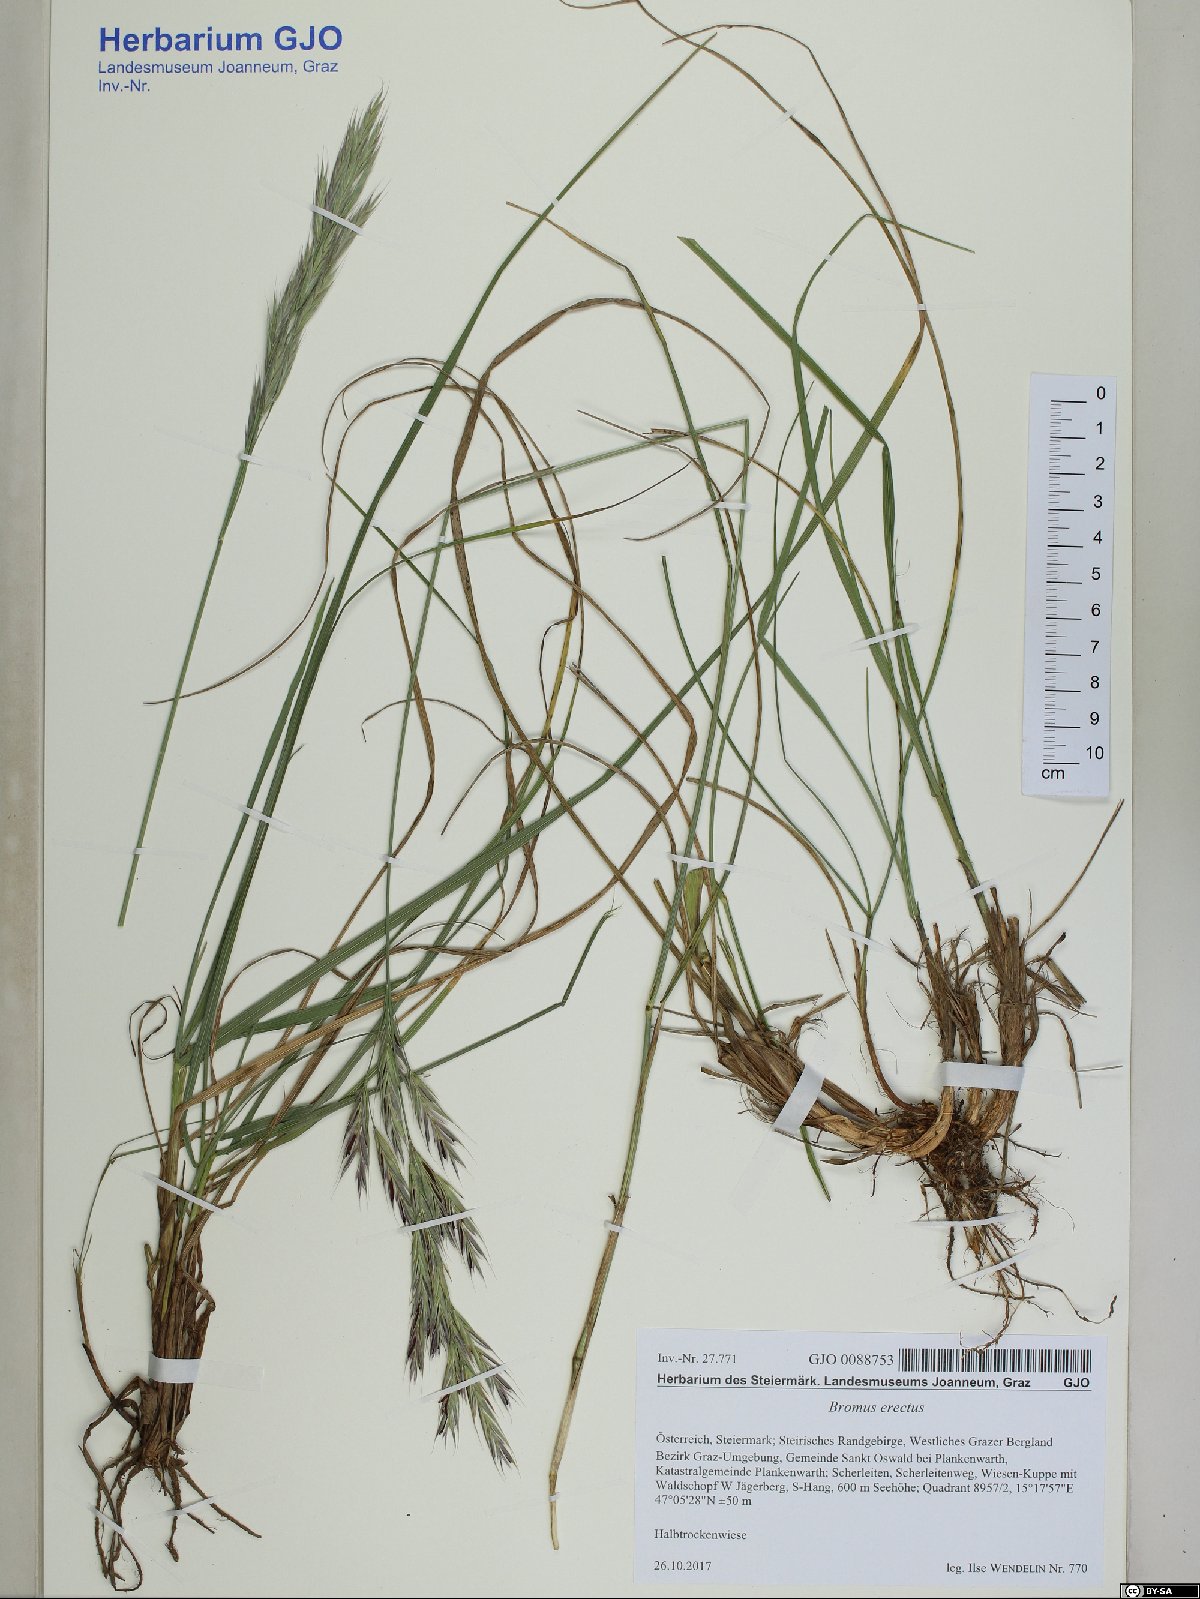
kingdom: Plantae
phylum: Tracheophyta
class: Liliopsida
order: Poales
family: Poaceae
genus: Bromus
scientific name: Bromus erectus
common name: Erect brome
